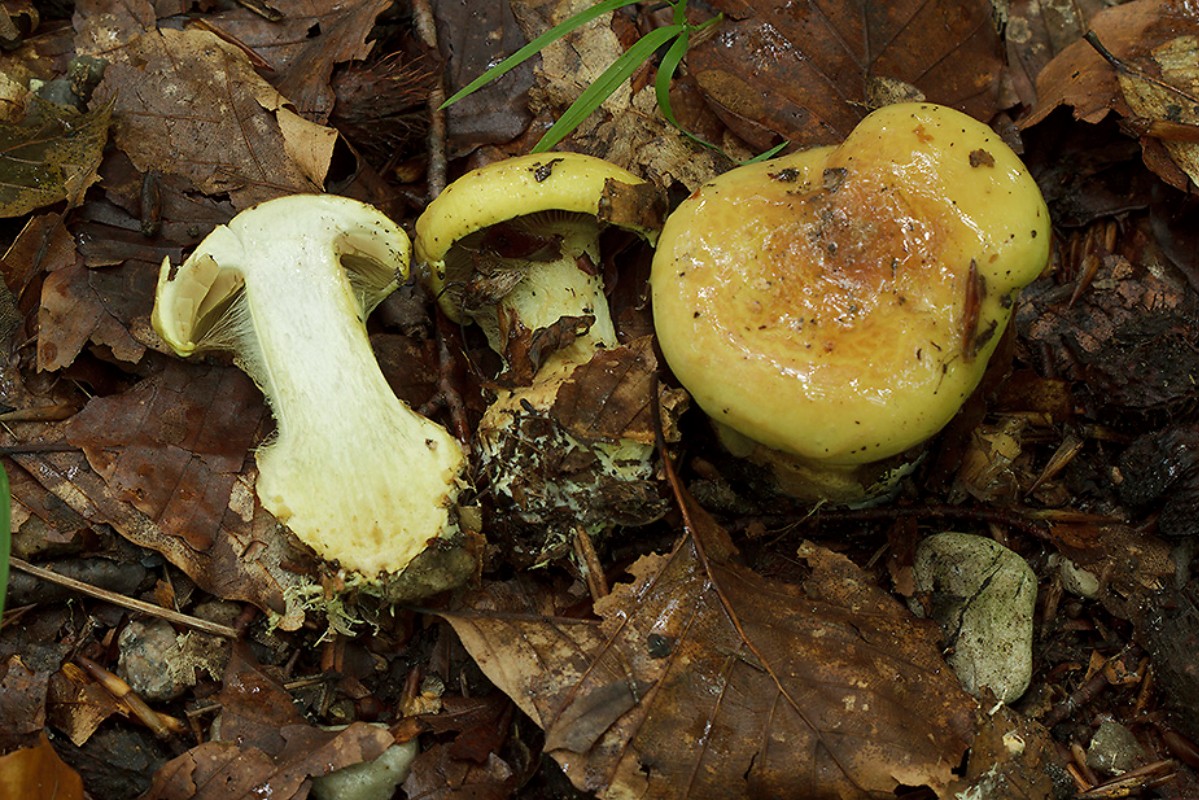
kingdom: Fungi
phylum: Basidiomycota
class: Agaricomycetes
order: Agaricales
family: Cortinariaceae
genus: Calonarius
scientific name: Calonarius elegantissimus
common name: orangegylden slørhat
